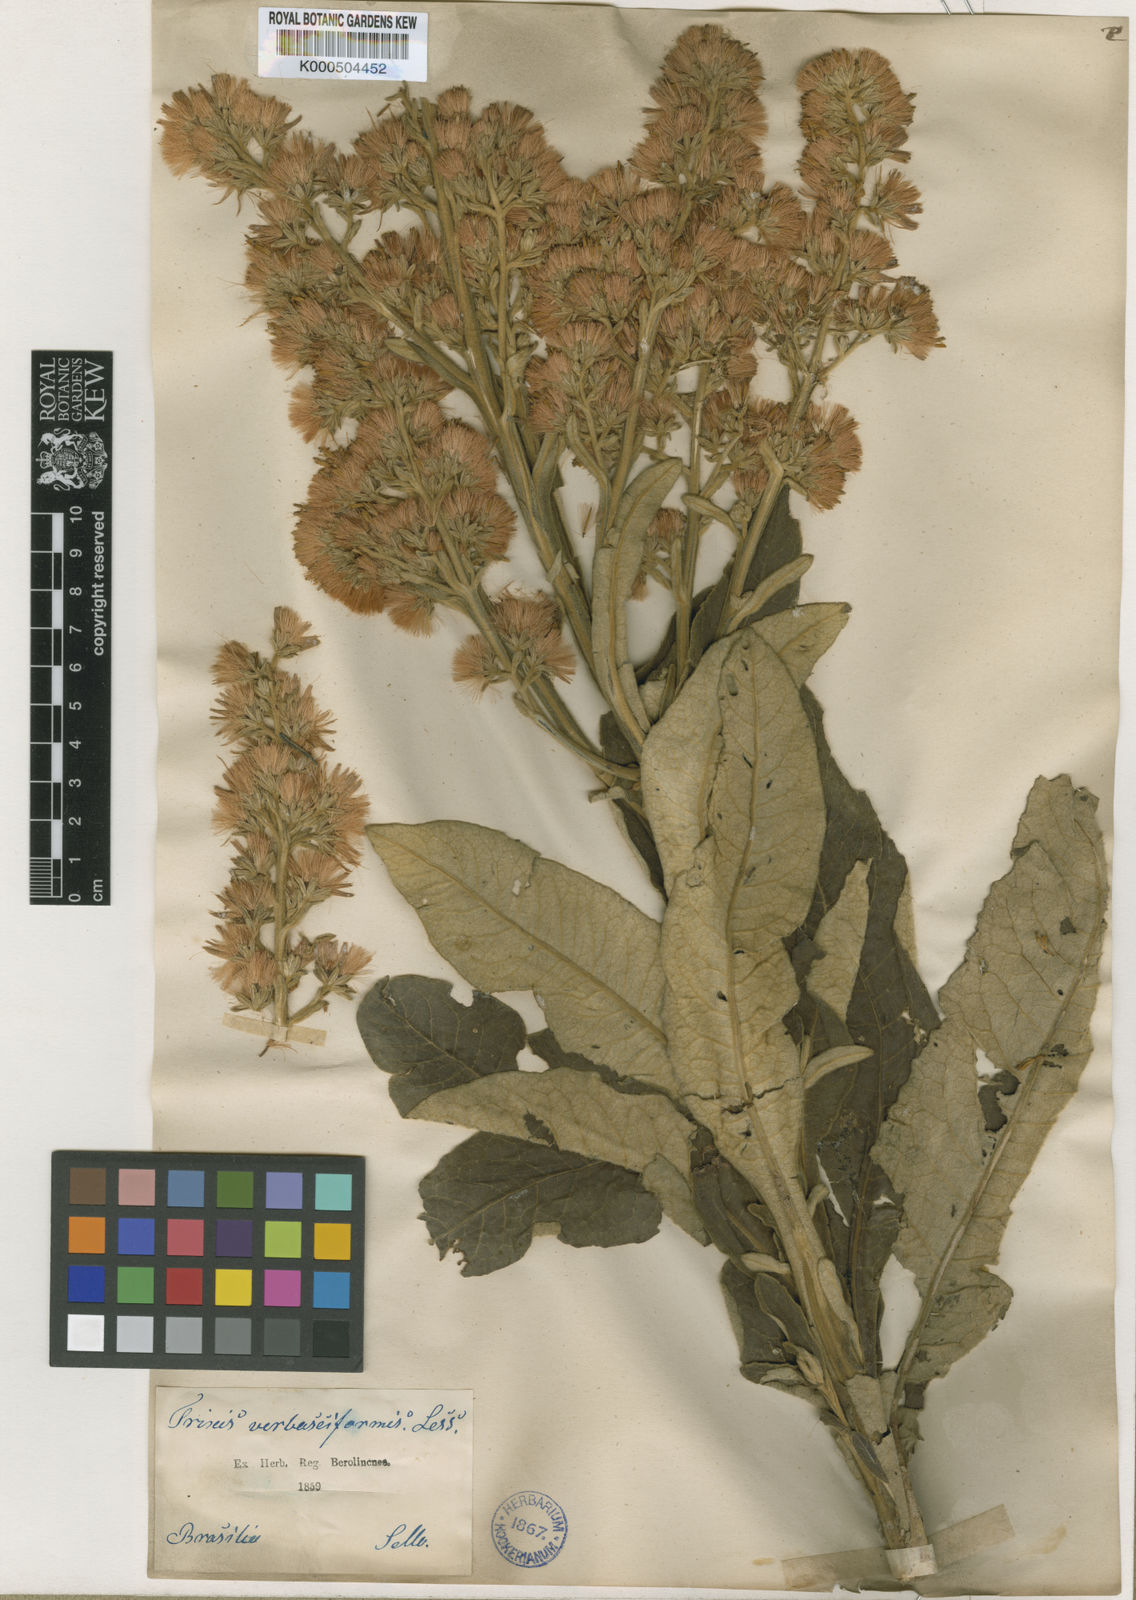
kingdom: Plantae
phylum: Tracheophyta
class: Magnoliopsida
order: Asterales
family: Asteraceae
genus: Trixis
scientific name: Trixis nobilis
